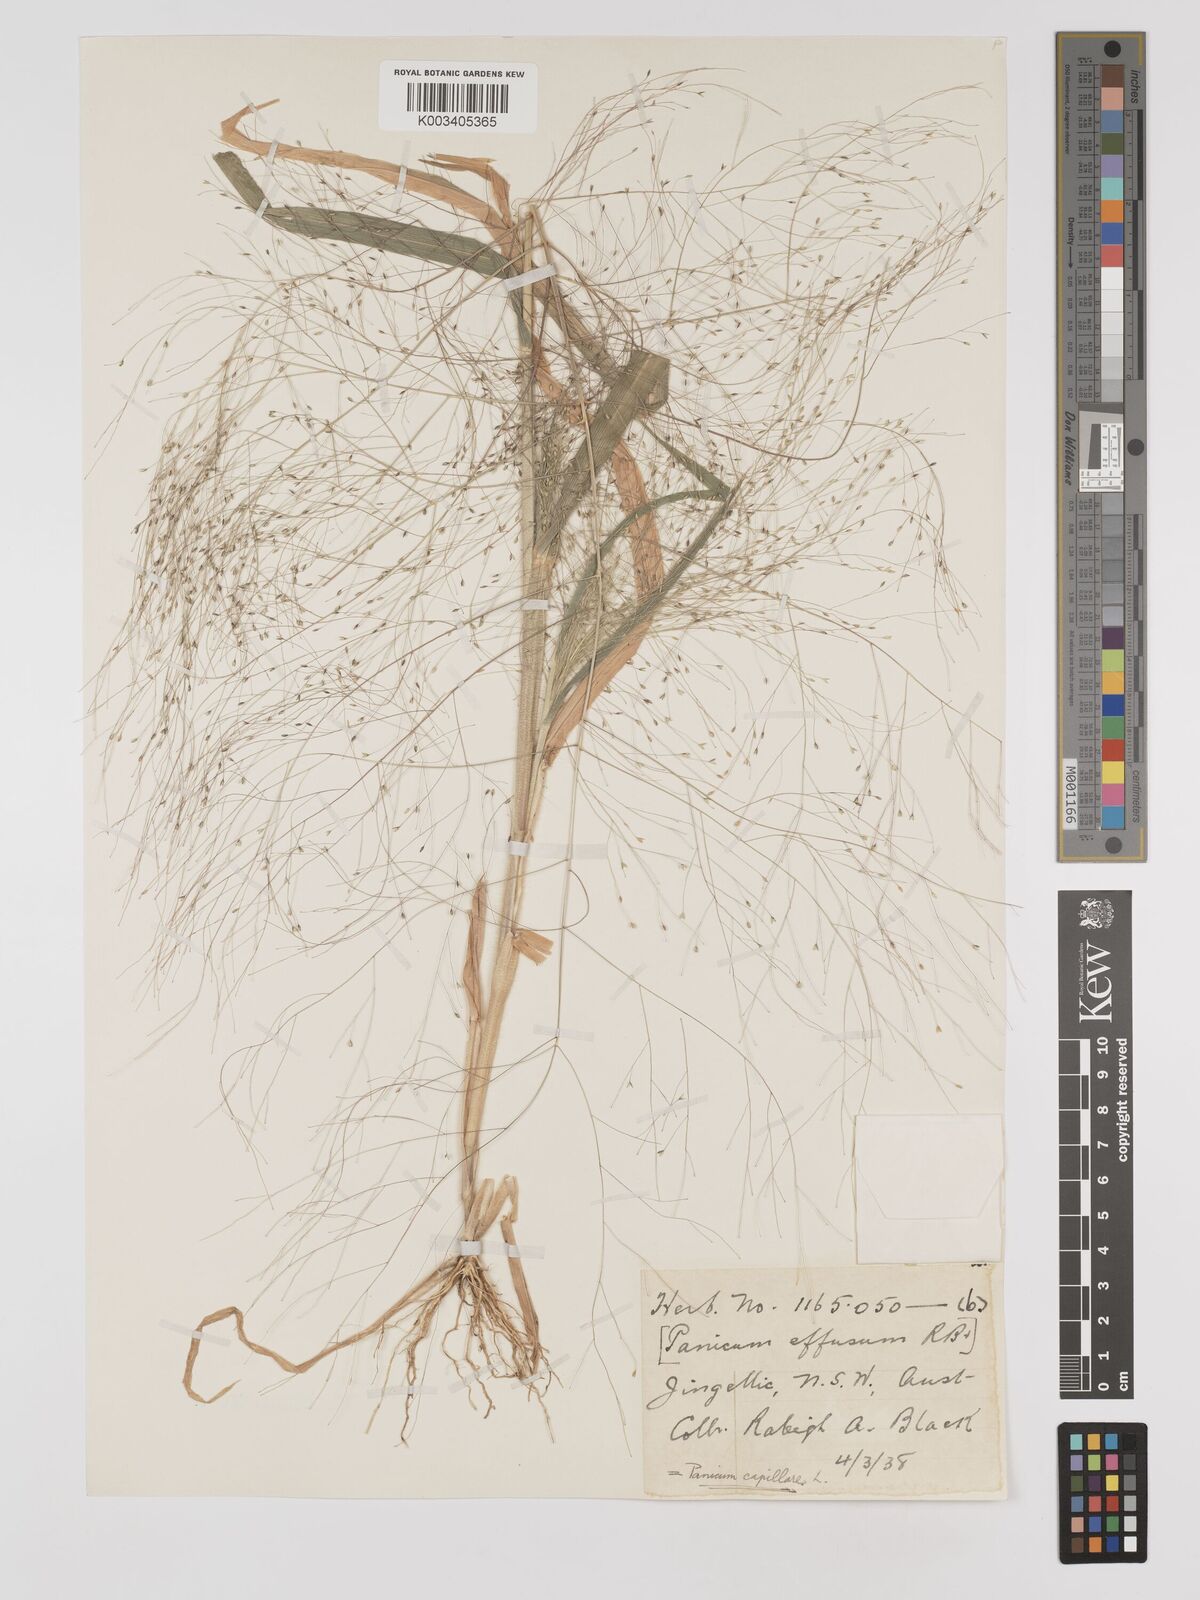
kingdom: Plantae
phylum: Tracheophyta
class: Liliopsida
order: Poales
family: Poaceae
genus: Panicum
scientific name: Panicum capillare
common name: Witch-grass
